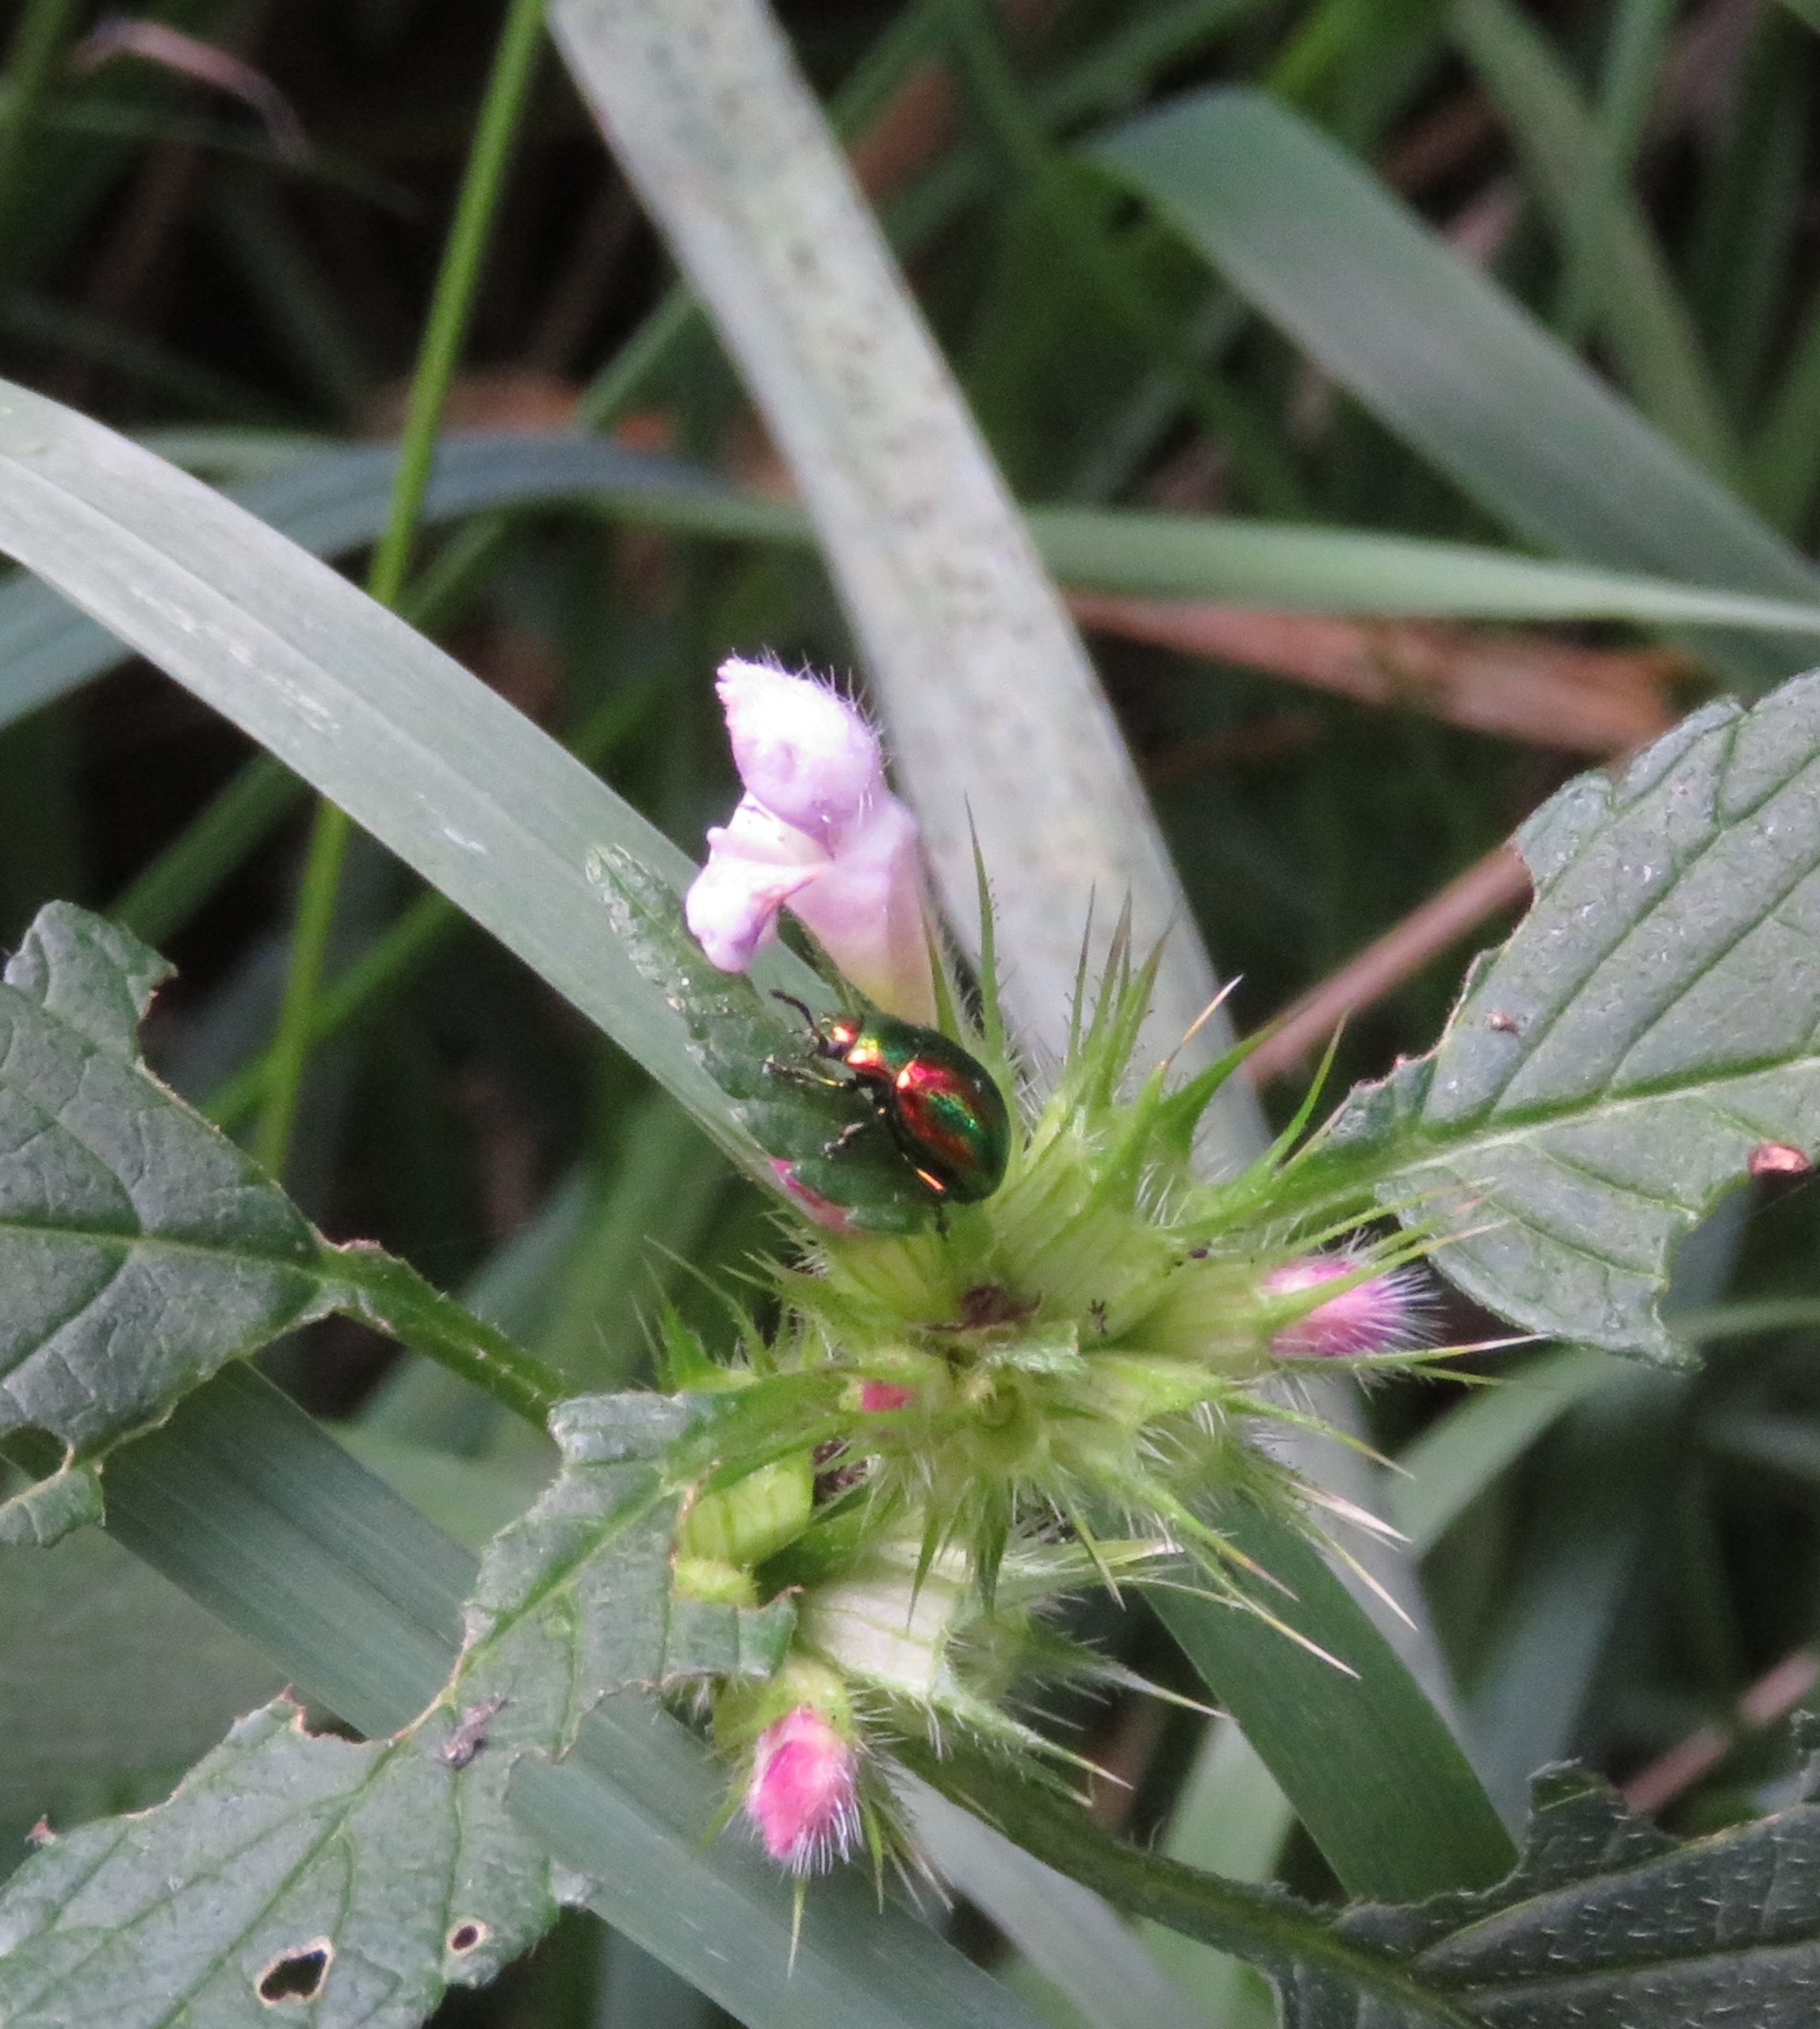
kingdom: Animalia
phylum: Arthropoda
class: Insecta
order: Coleoptera
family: Chrysomelidae
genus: Chrysolina
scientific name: Chrysolina fastuosa
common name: Tvetandbladbille
